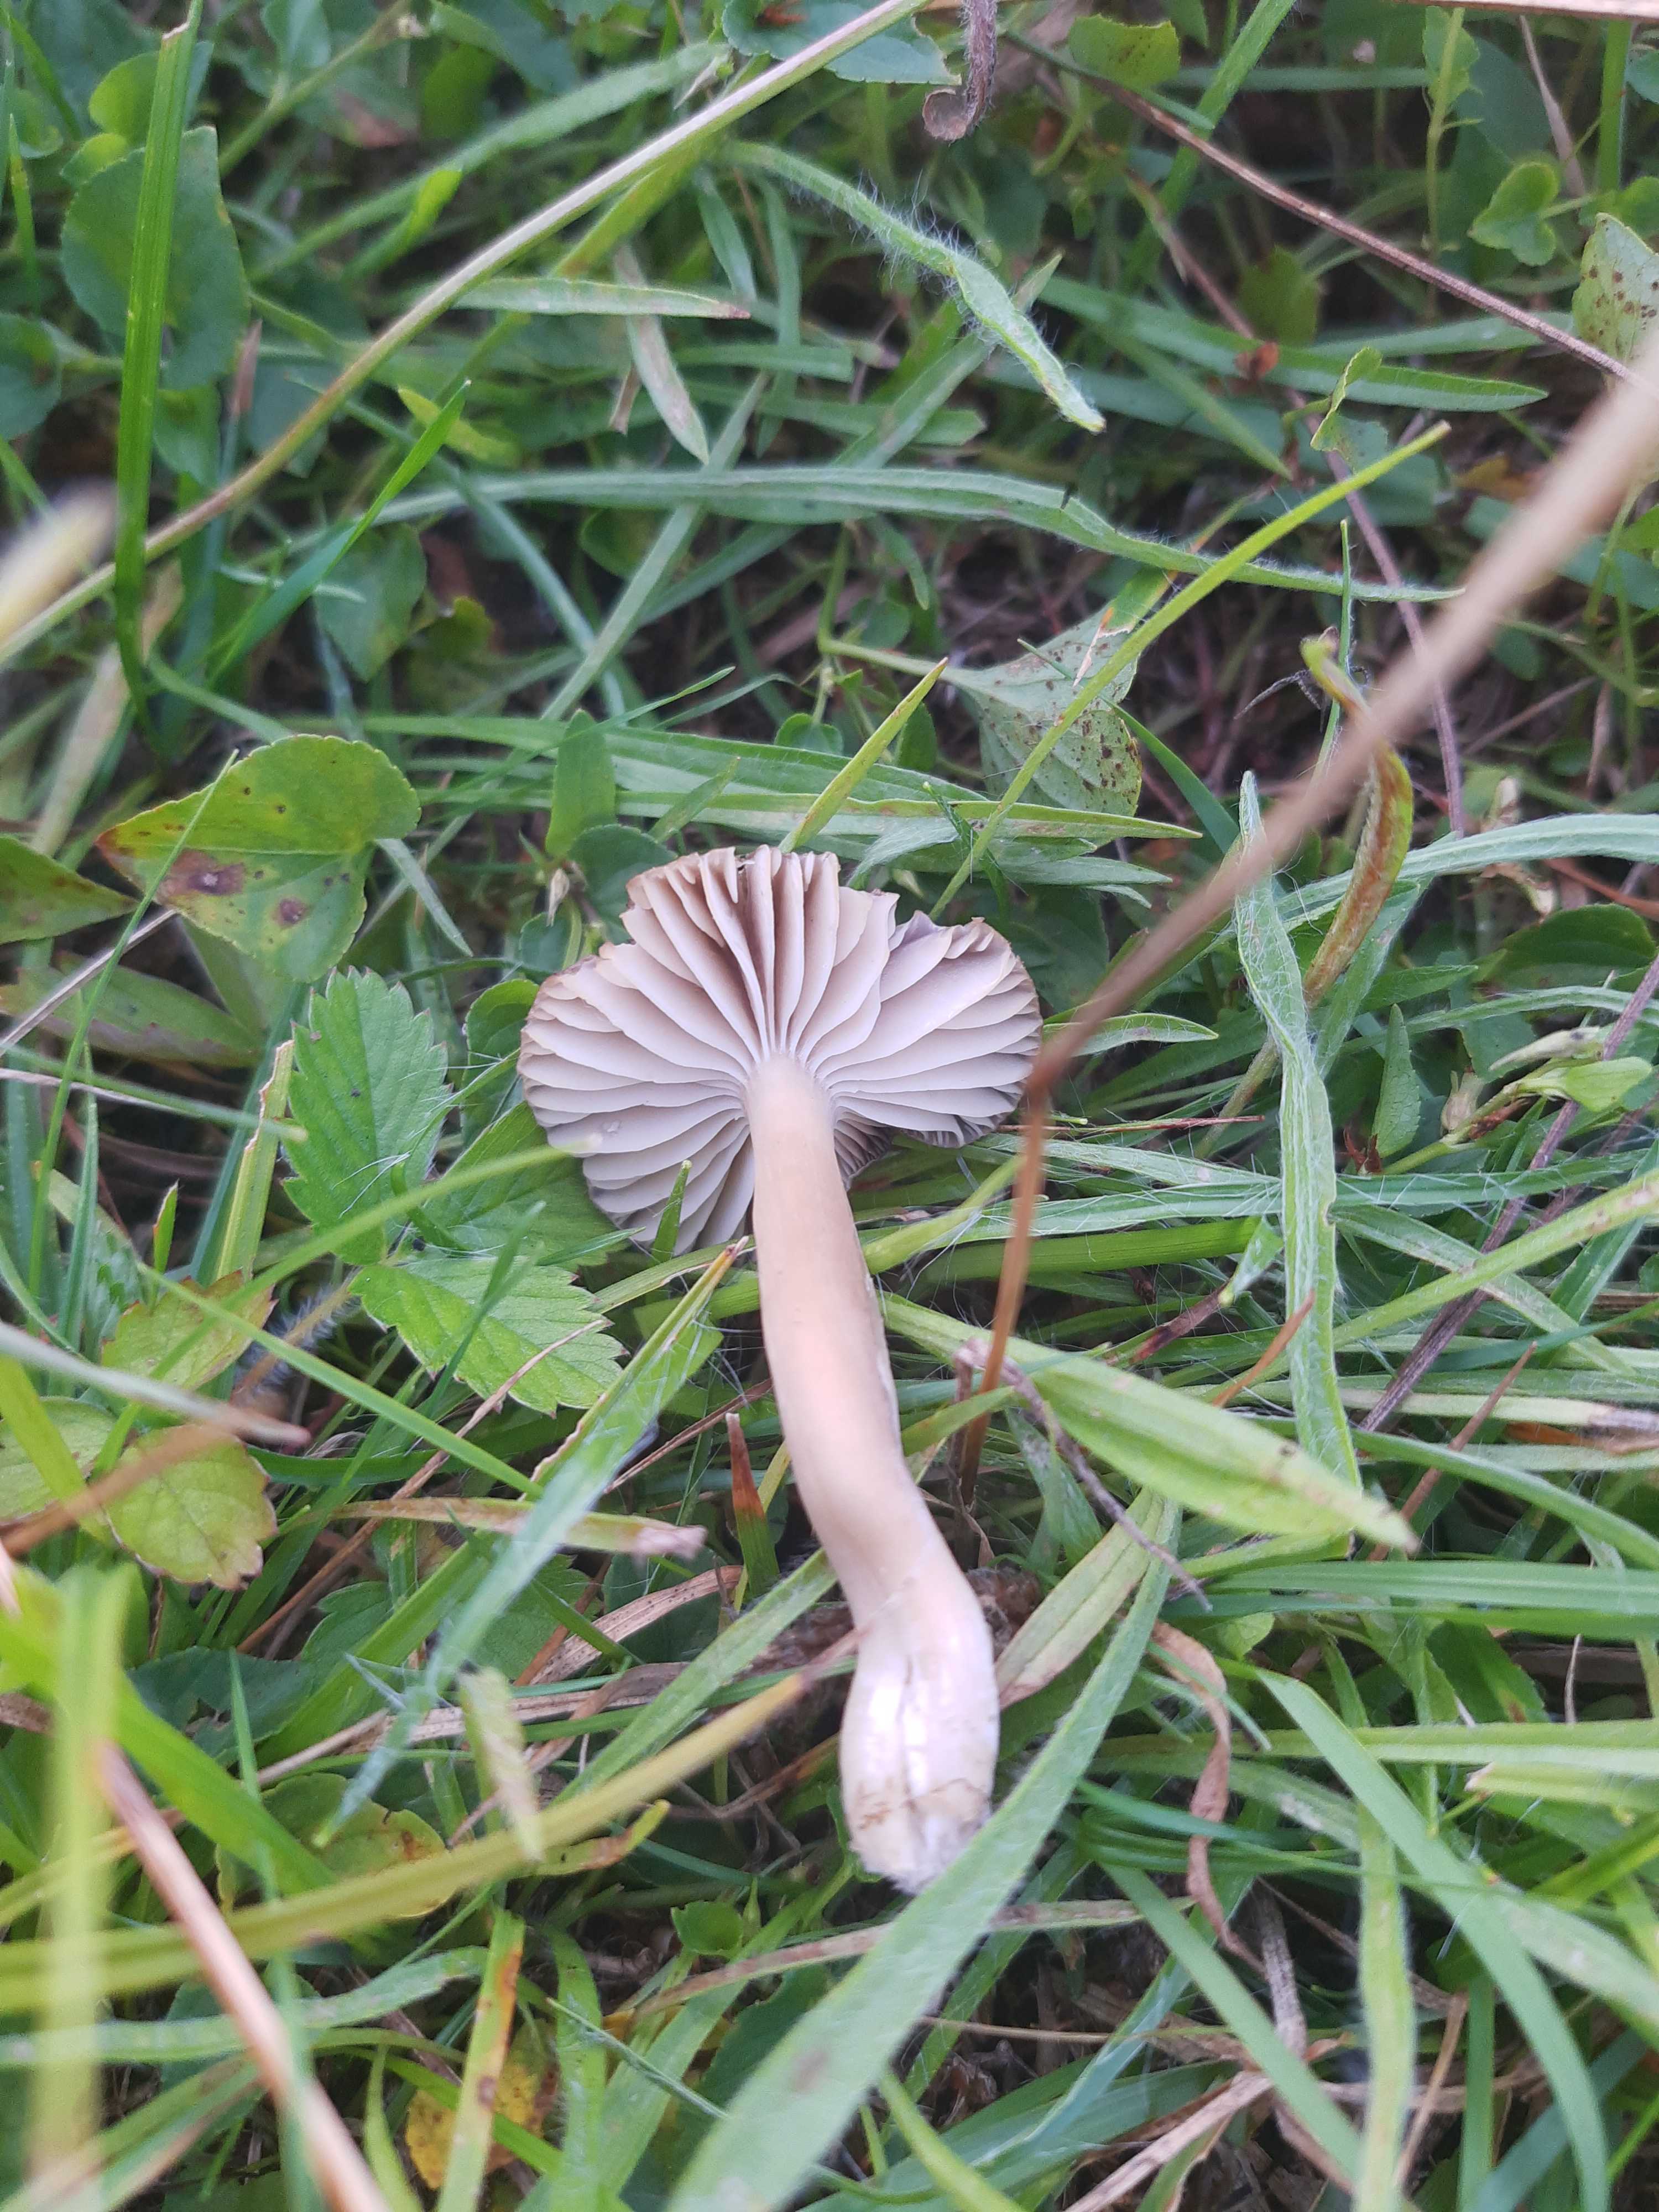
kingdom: Fungi
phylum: Basidiomycota
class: Agaricomycetes
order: Agaricales
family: Hygrophoraceae
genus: Neohygrocybe
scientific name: Neohygrocybe nitrata
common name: stinkende vokshat
